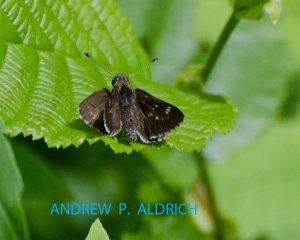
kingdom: Animalia
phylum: Arthropoda
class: Insecta
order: Lepidoptera
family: Hesperiidae
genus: Mastor
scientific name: Mastor hegon
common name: Pepper and Salt Skipper
